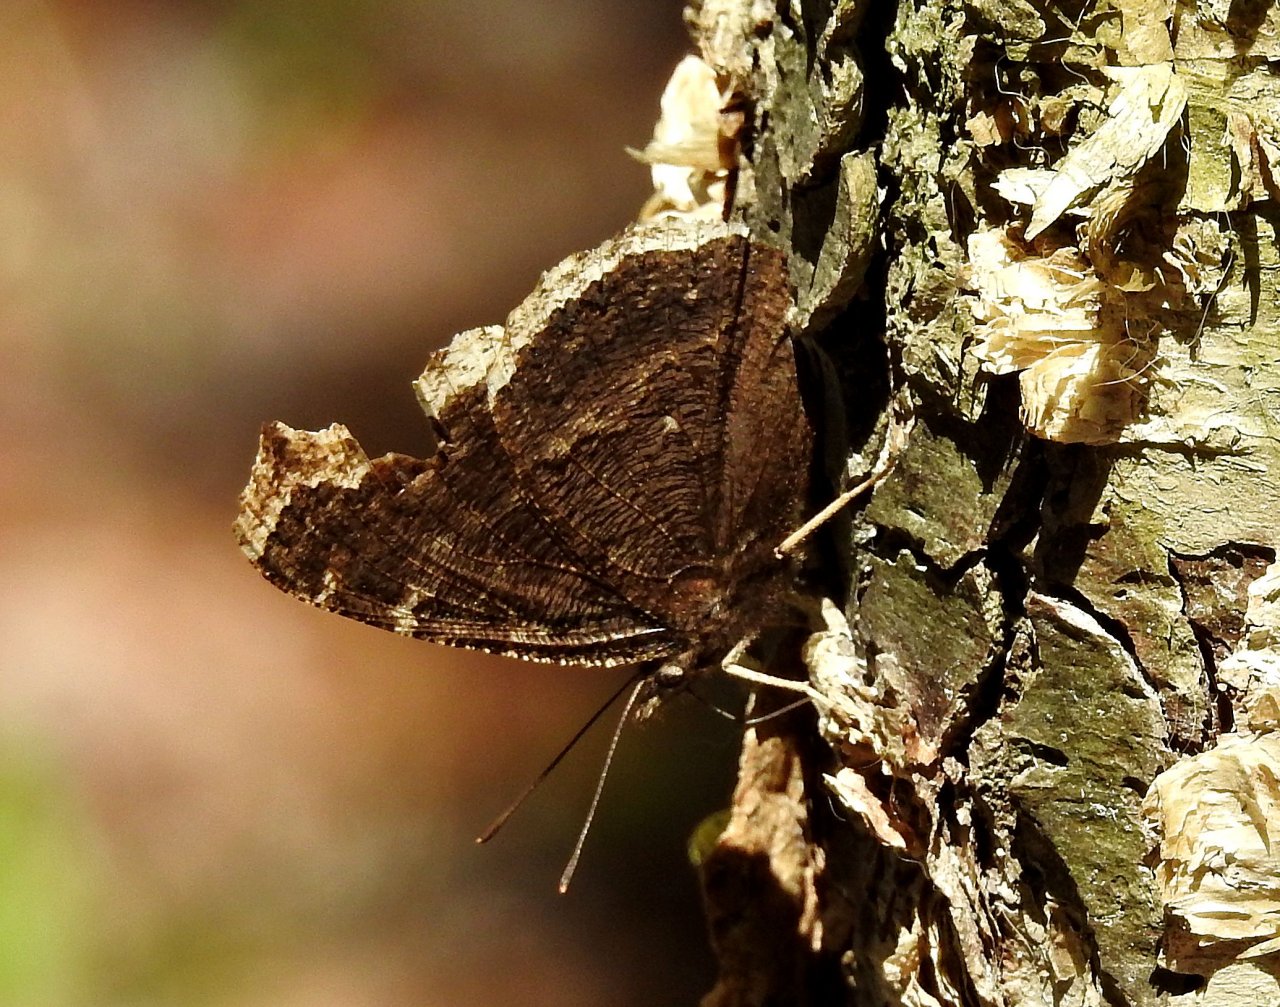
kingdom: Animalia
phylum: Arthropoda
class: Insecta
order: Lepidoptera
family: Nymphalidae
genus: Nymphalis
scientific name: Nymphalis antiopa
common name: Mourning Cloak
